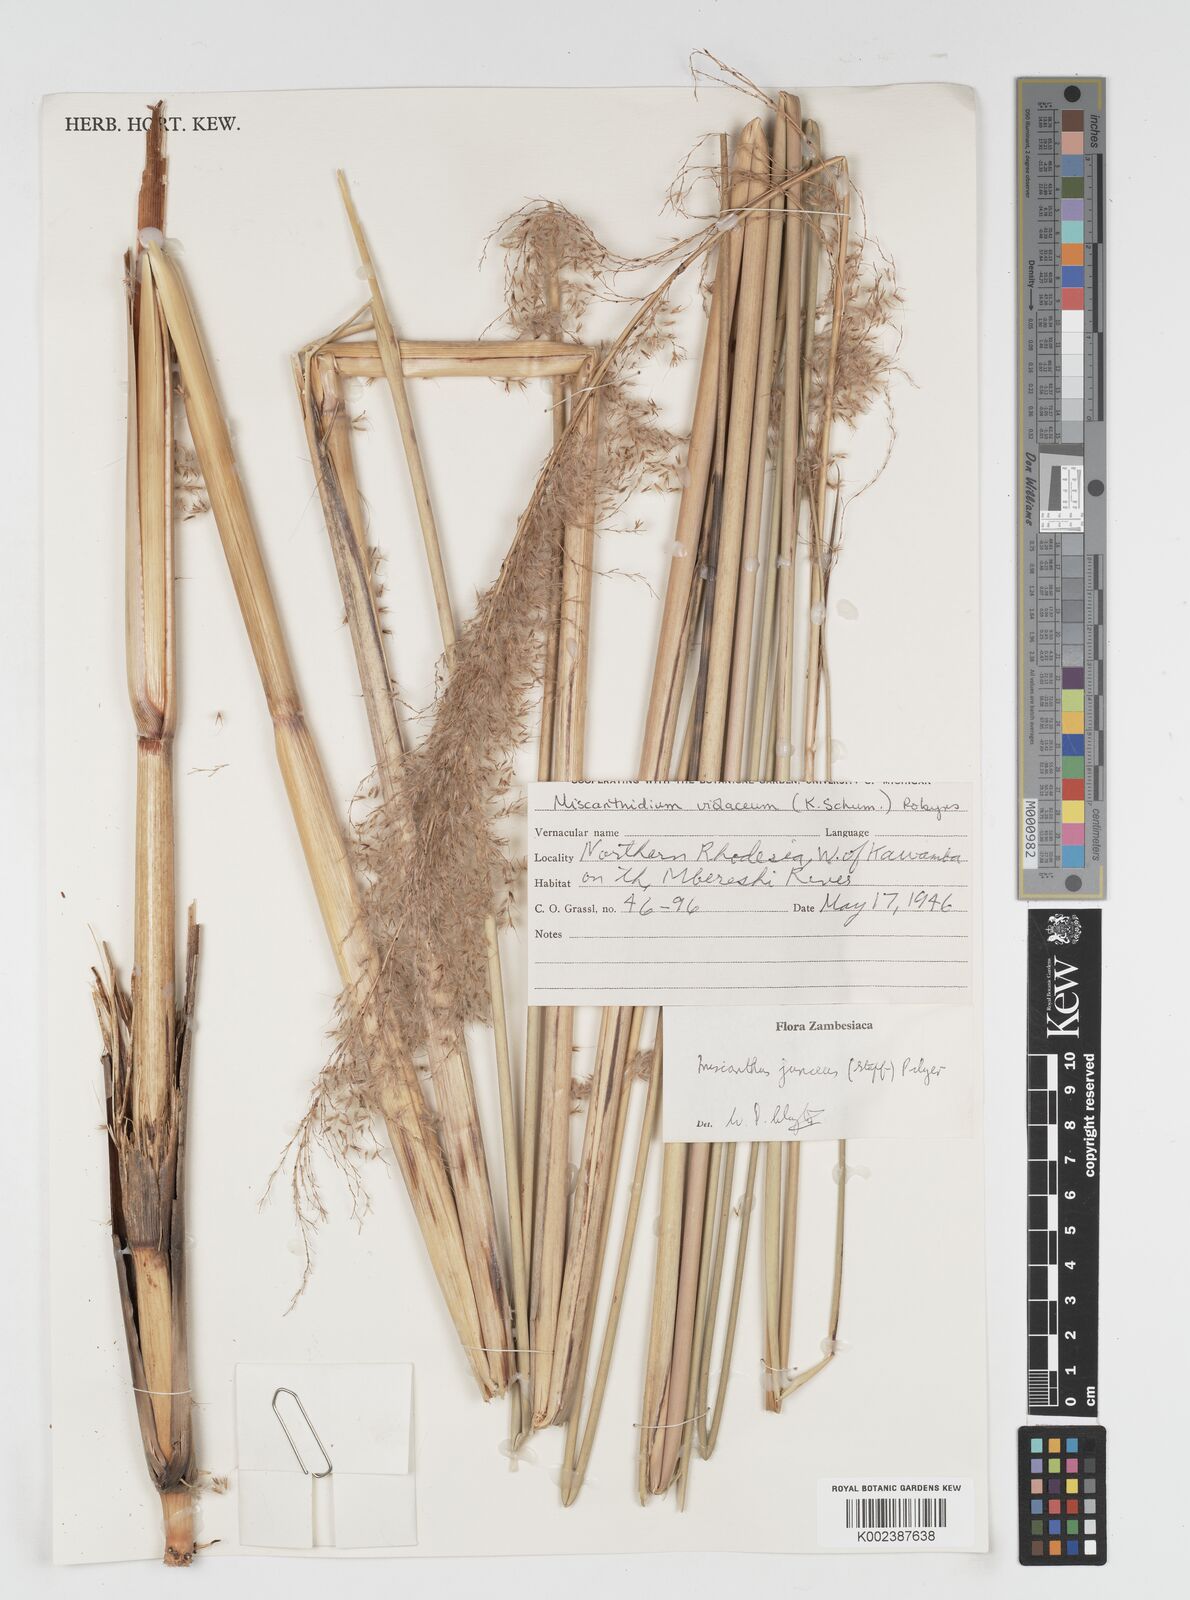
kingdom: Plantae
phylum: Tracheophyta
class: Liliopsida
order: Poales
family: Poaceae
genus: Miscanthidium
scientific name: Miscanthidium junceum
